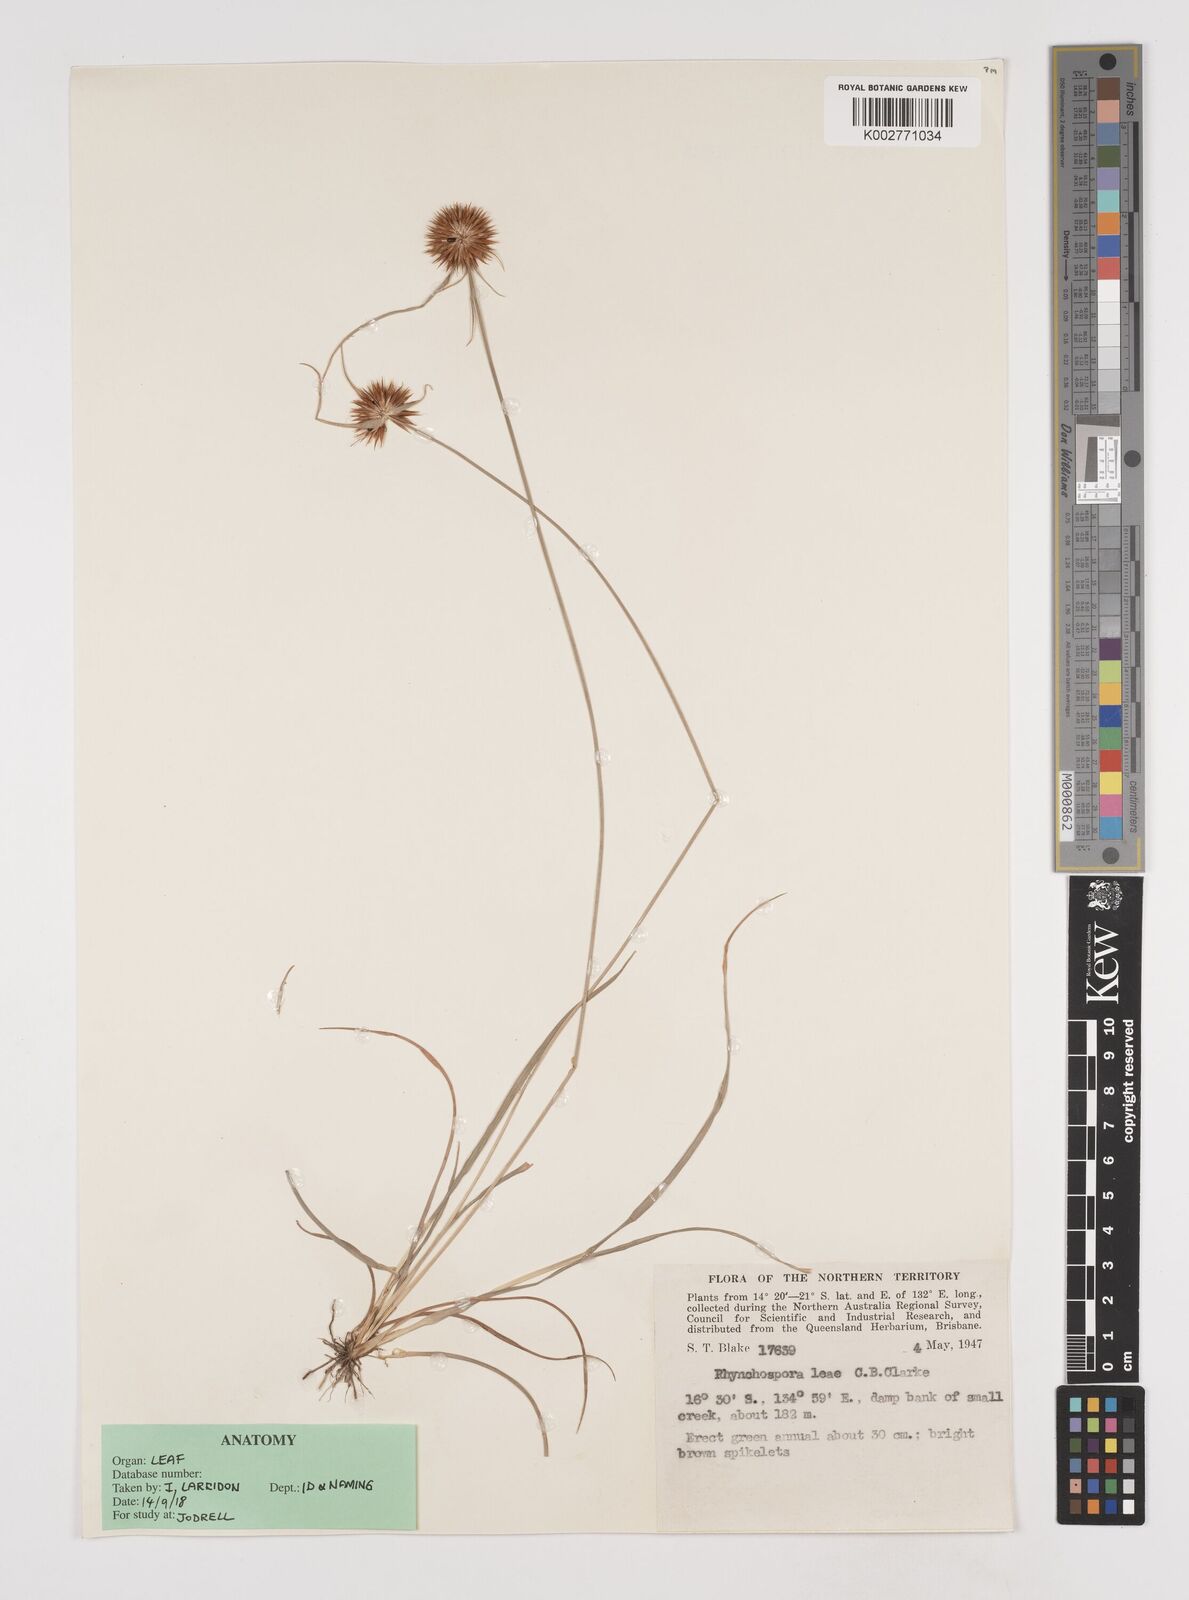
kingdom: Plantae
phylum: Tracheophyta
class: Liliopsida
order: Poales
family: Cyperaceae
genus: Rhynchospora
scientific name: Rhynchospora leae
